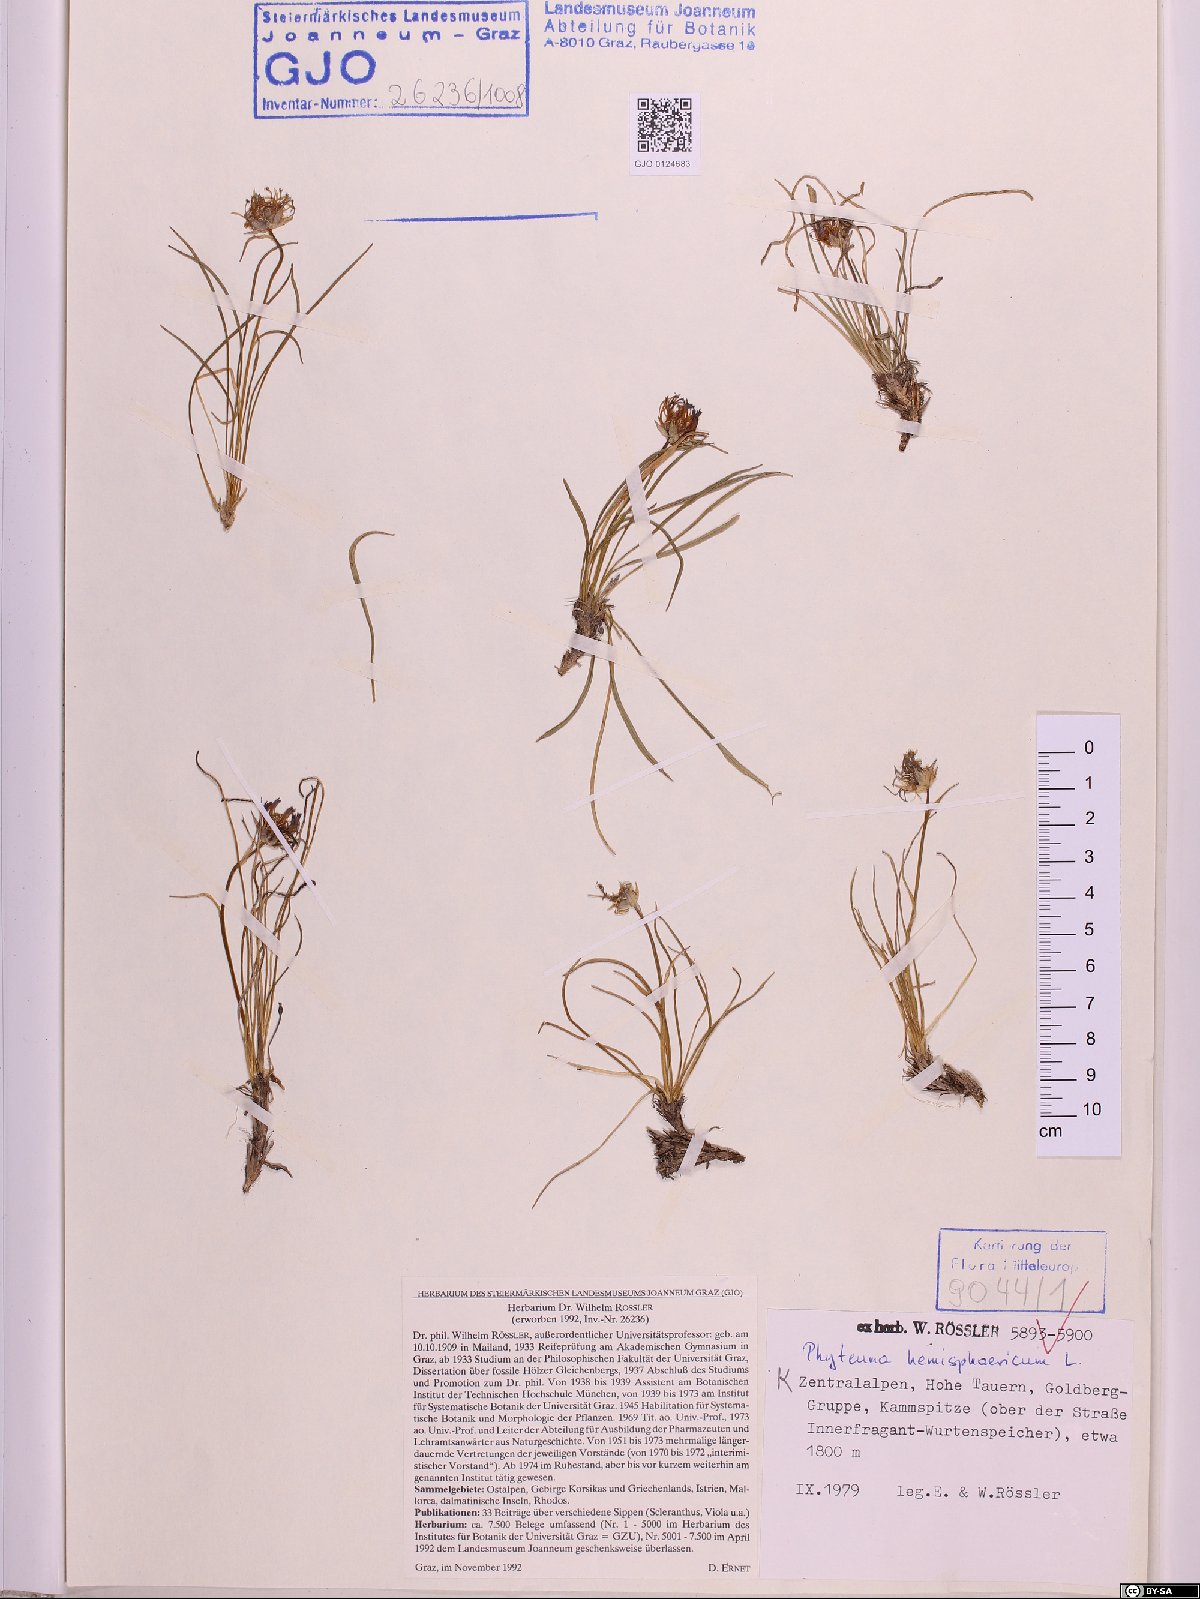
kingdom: Plantae
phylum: Tracheophyta
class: Magnoliopsida
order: Asterales
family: Campanulaceae
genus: Phyteuma
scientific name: Phyteuma hemisphaericum
